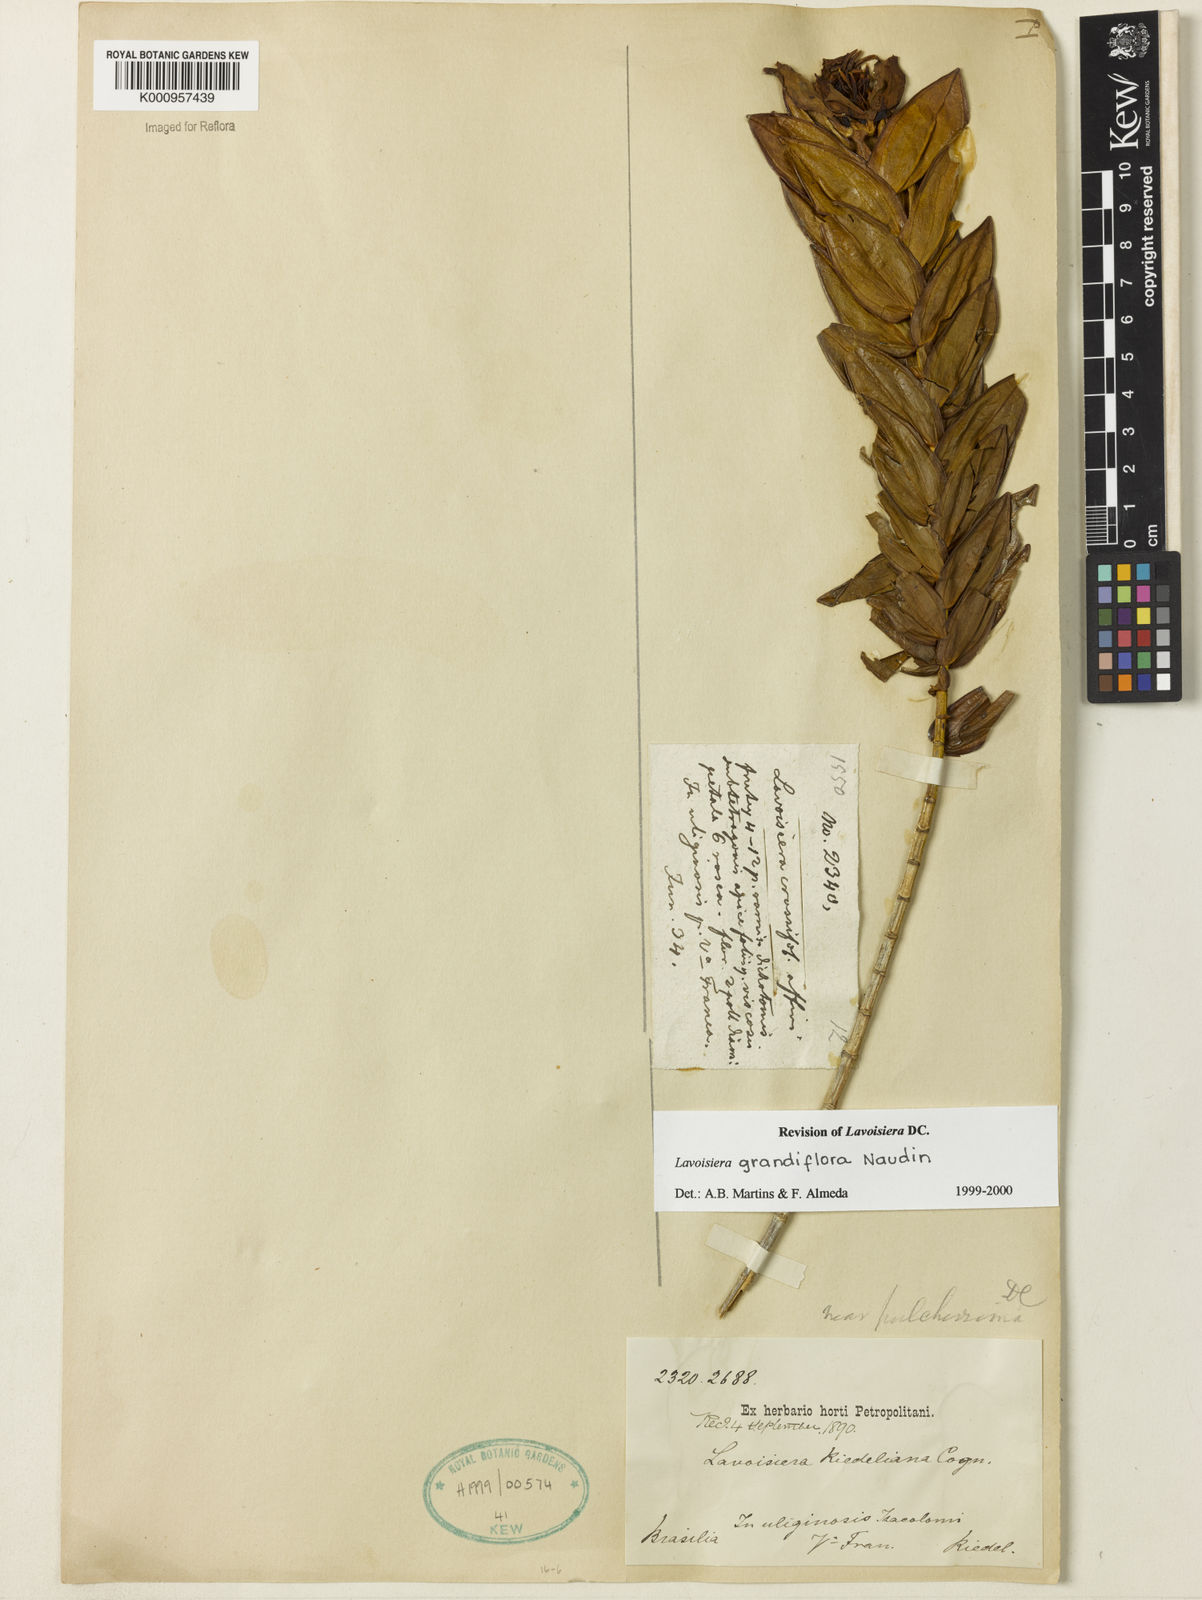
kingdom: Plantae
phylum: Tracheophyta
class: Magnoliopsida
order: Myrtales
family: Melastomataceae
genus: Microlicia
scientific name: Microlicia macrantha
